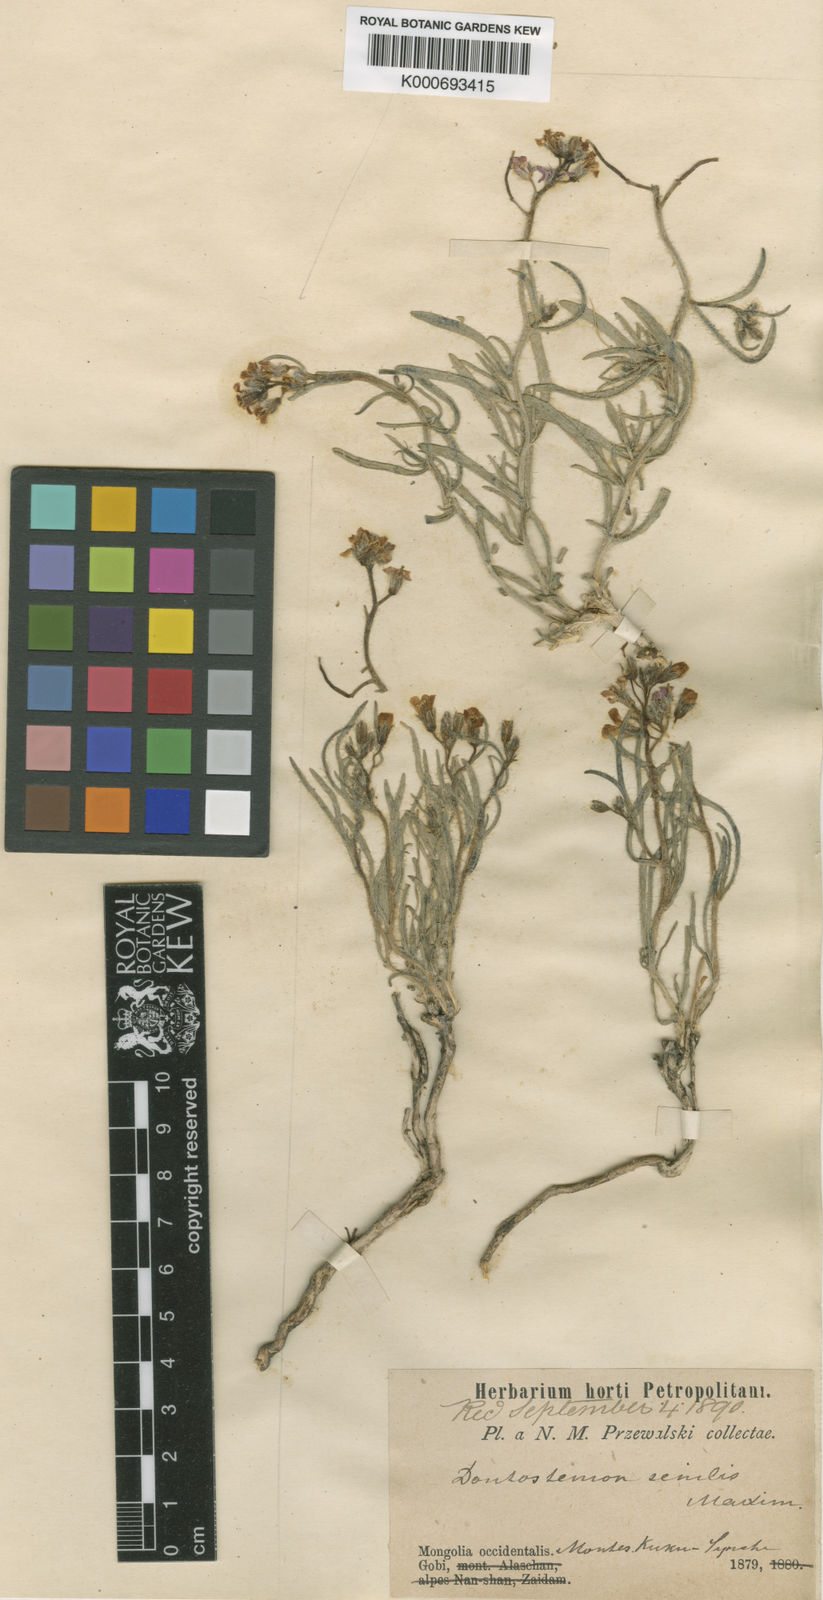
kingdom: Plantae
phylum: Tracheophyta
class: Magnoliopsida
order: Brassicales
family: Brassicaceae
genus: Dontostemon
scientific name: Dontostemon senilis
